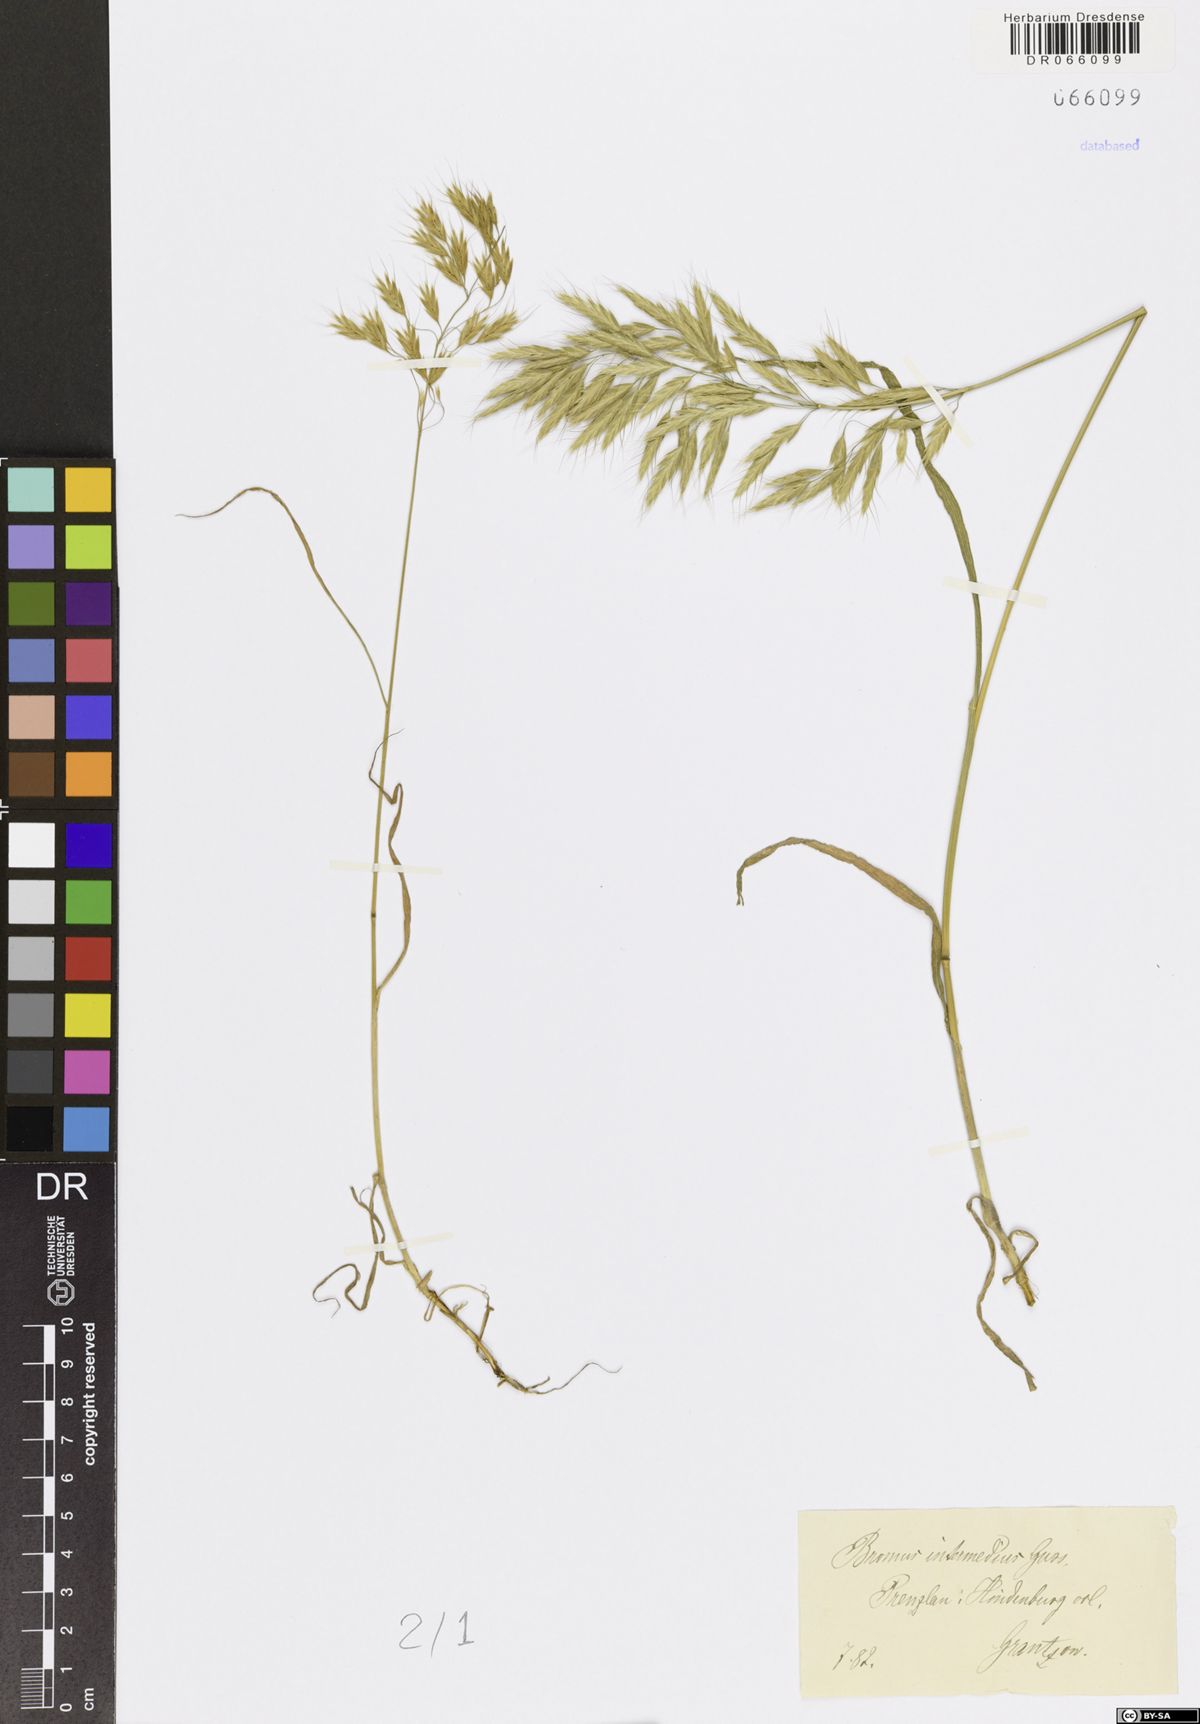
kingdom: Plantae
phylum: Tracheophyta
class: Liliopsida
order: Poales
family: Poaceae
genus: Bromus
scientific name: Bromus intermedius
